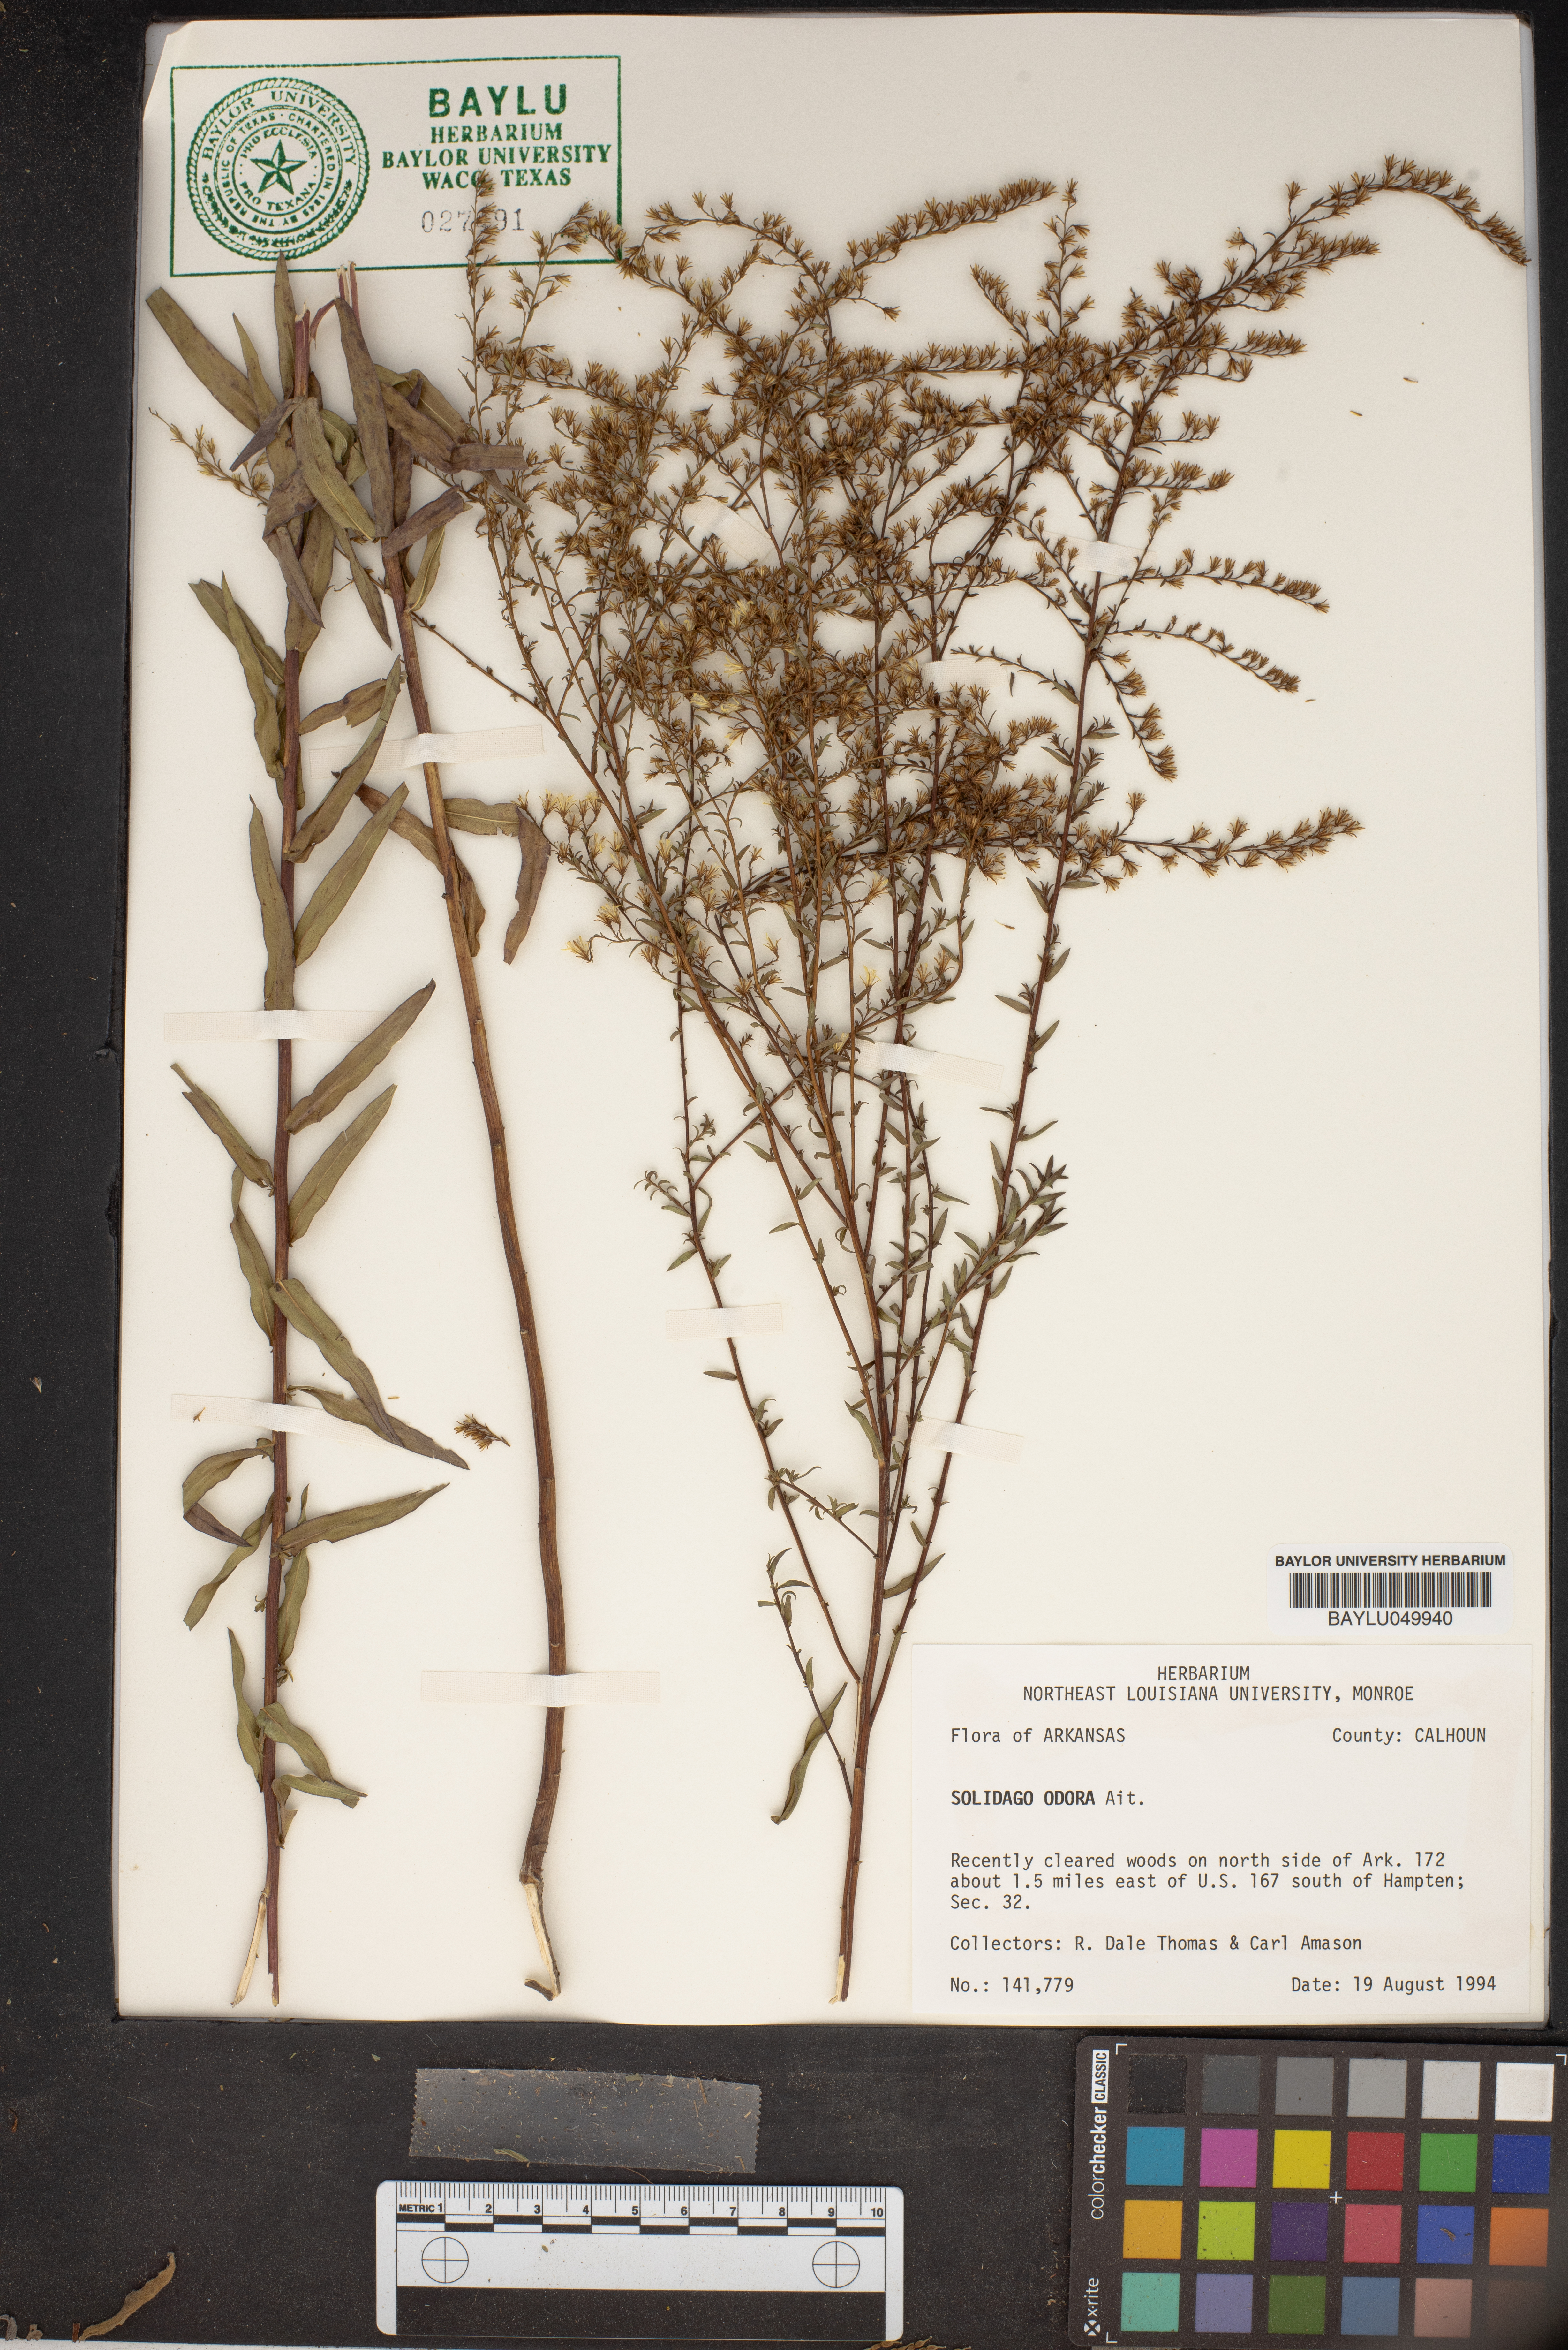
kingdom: Plantae
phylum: Tracheophyta
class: Magnoliopsida
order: Asterales
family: Asteraceae
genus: Solidago
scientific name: Solidago odora
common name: Anise-scented goldenrod
